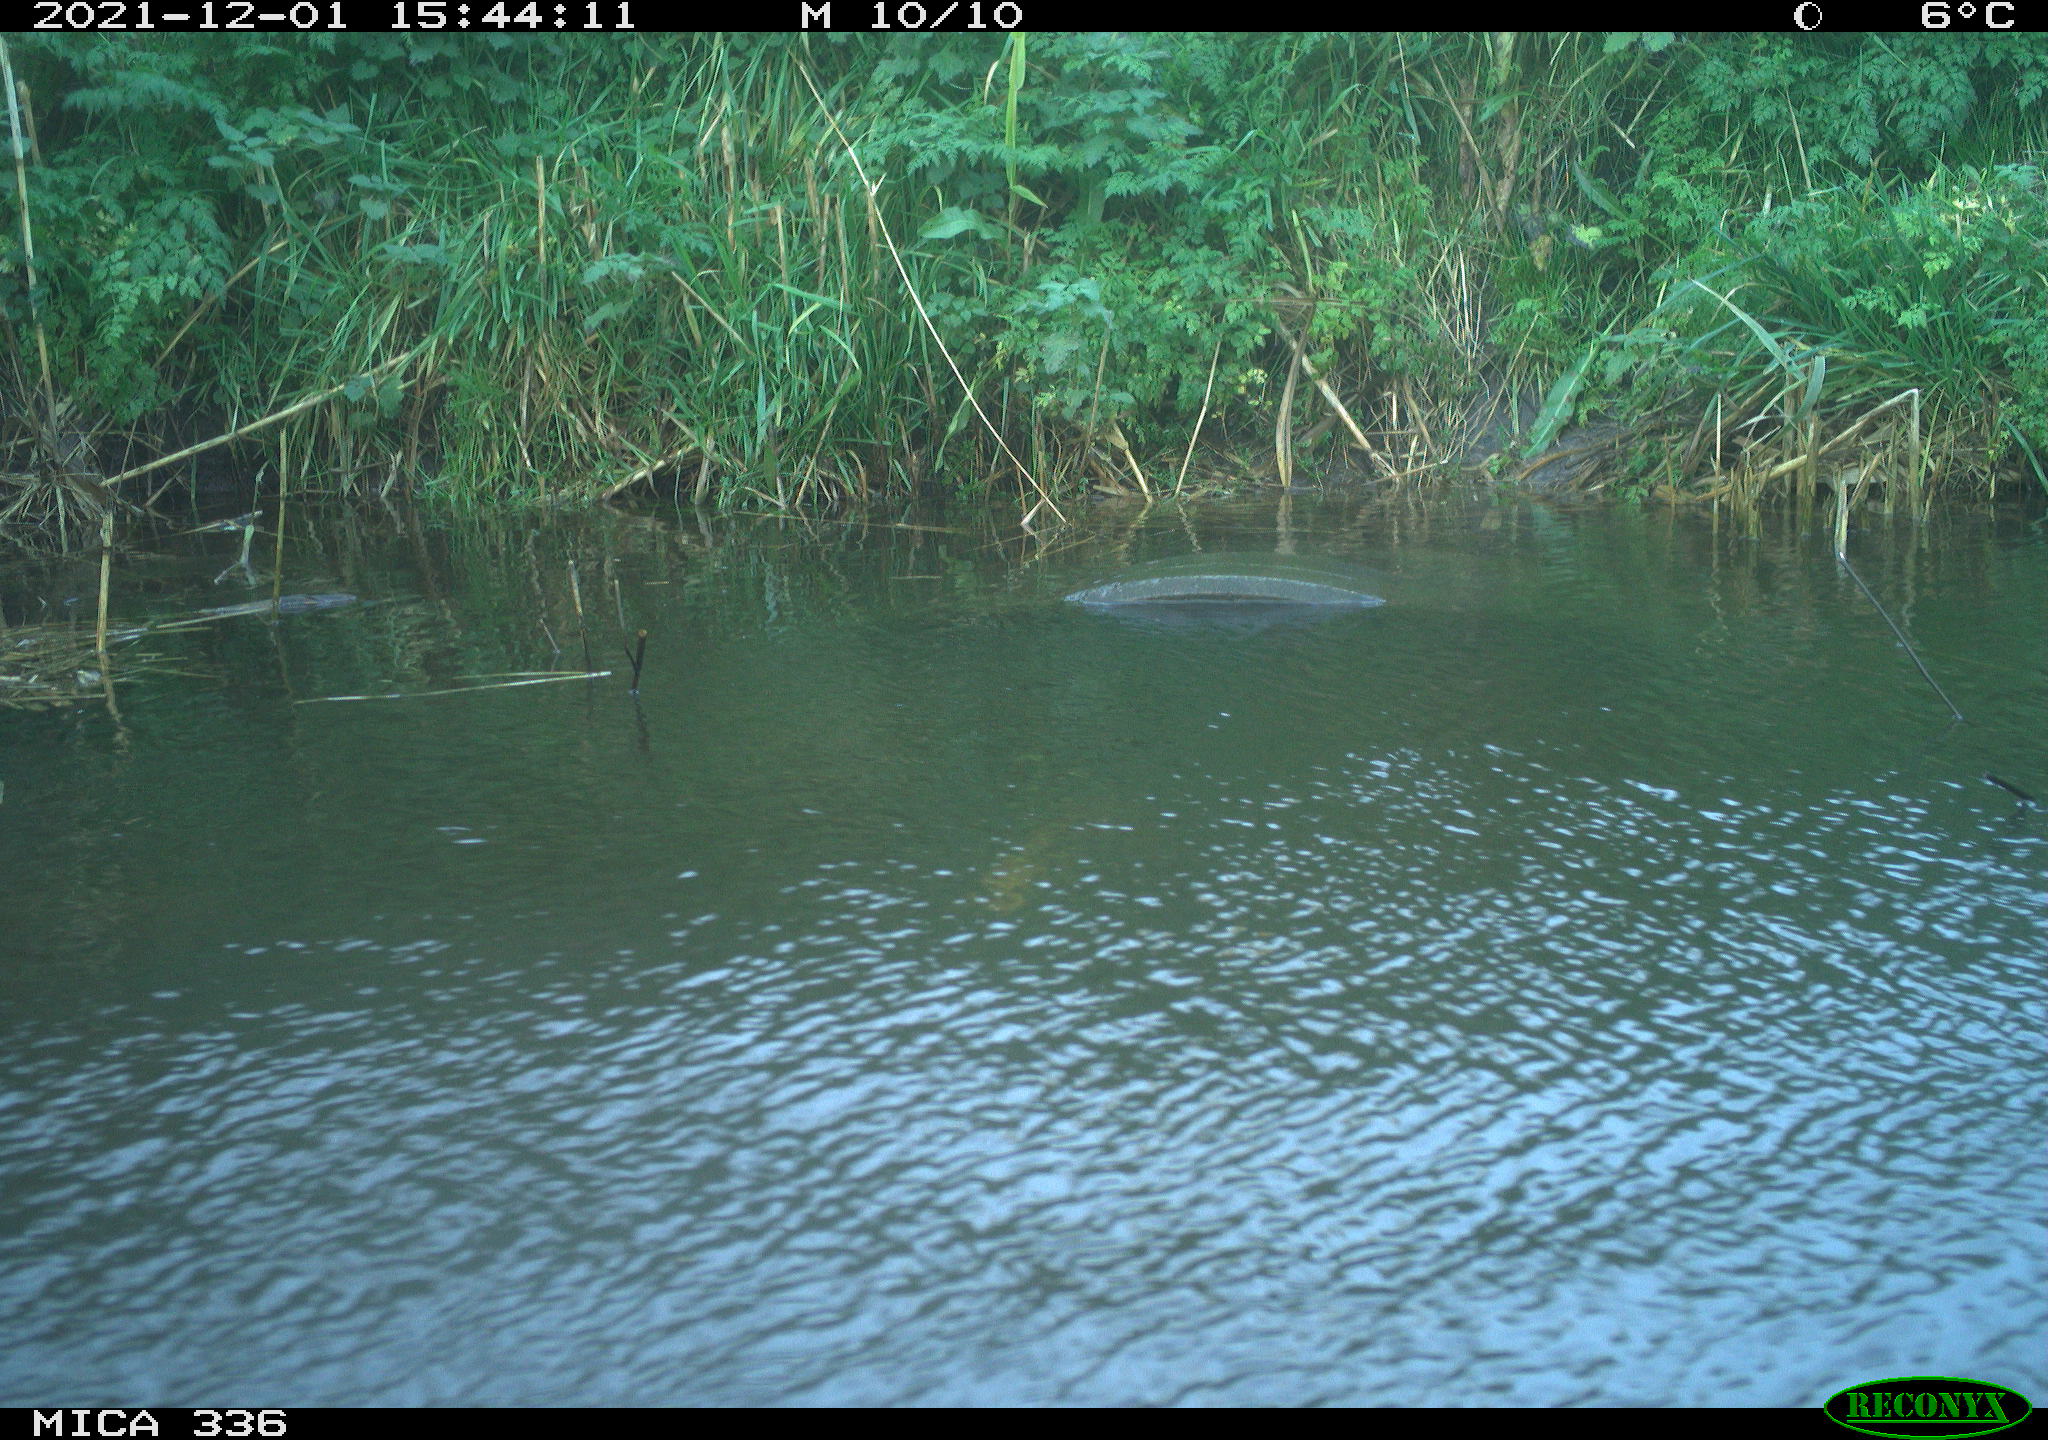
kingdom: Animalia
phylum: Chordata
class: Aves
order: Gruiformes
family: Rallidae
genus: Gallinula
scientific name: Gallinula chloropus
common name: Common moorhen
